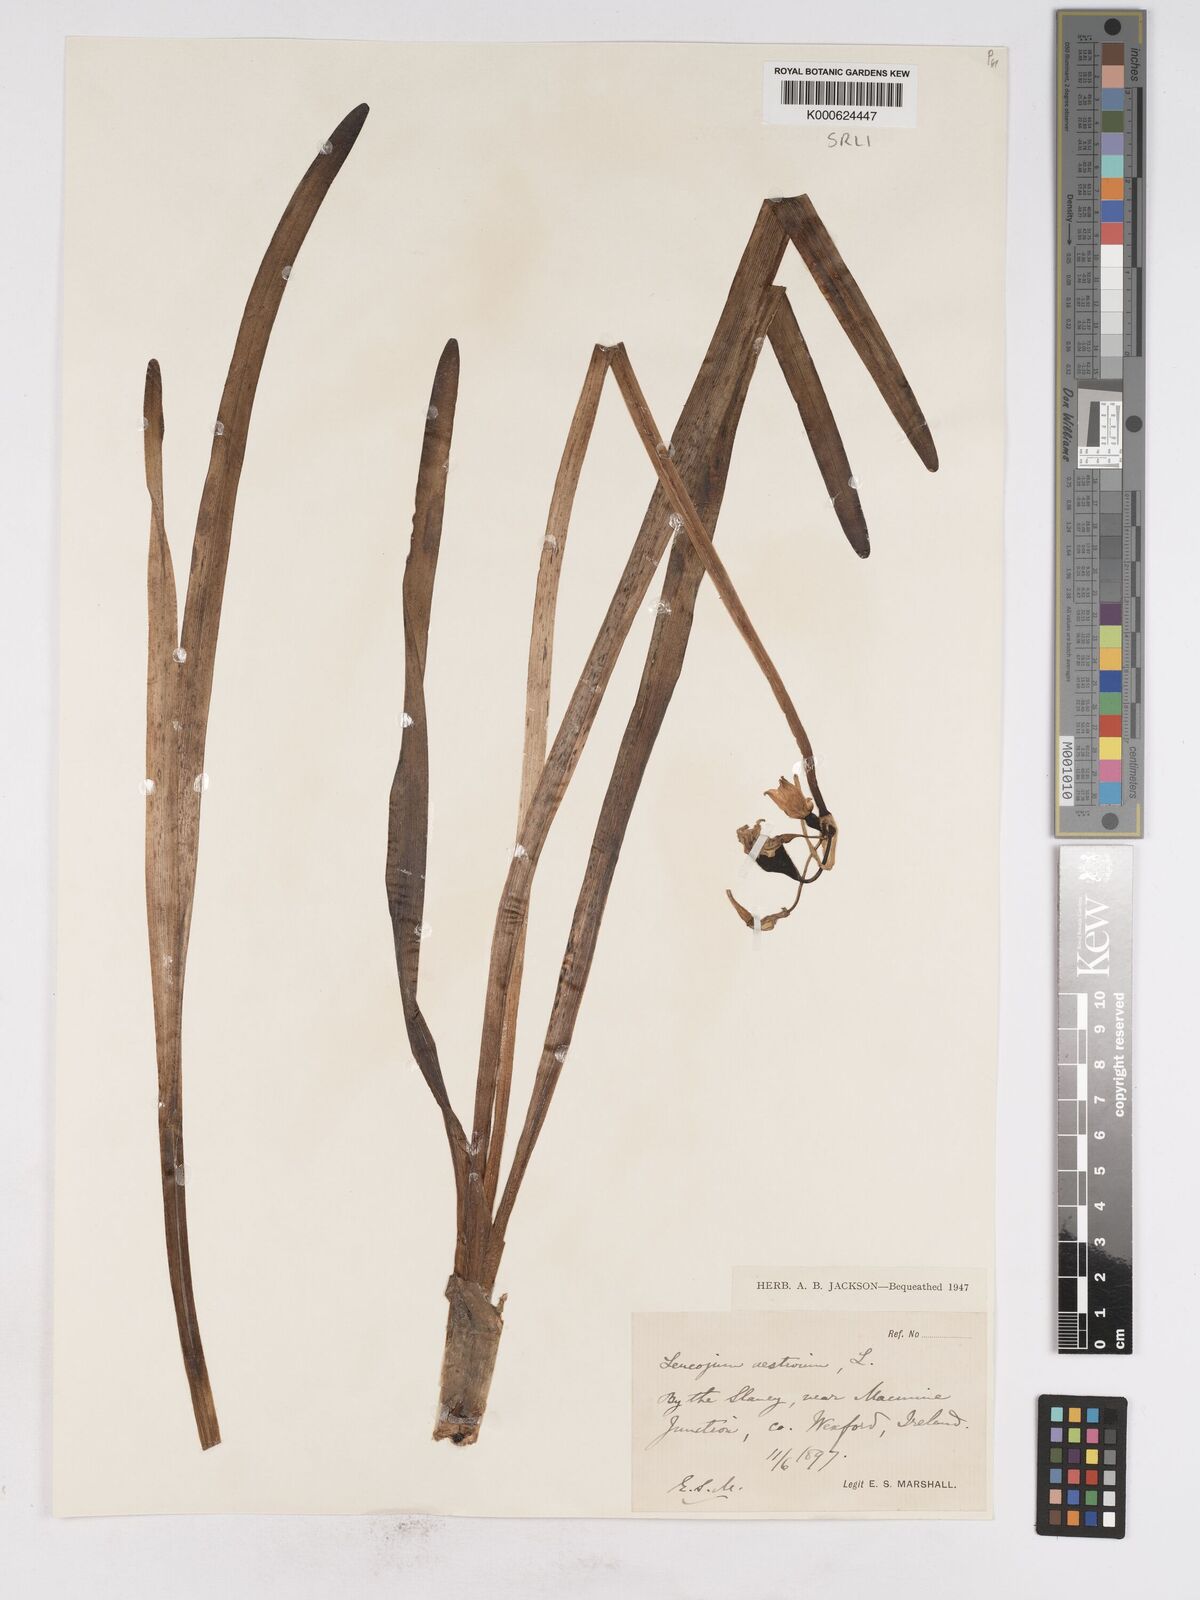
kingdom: Plantae
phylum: Tracheophyta
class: Liliopsida
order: Asparagales
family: Amaryllidaceae
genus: Leucojum
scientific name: Leucojum aestivum
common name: Summer snowflake
